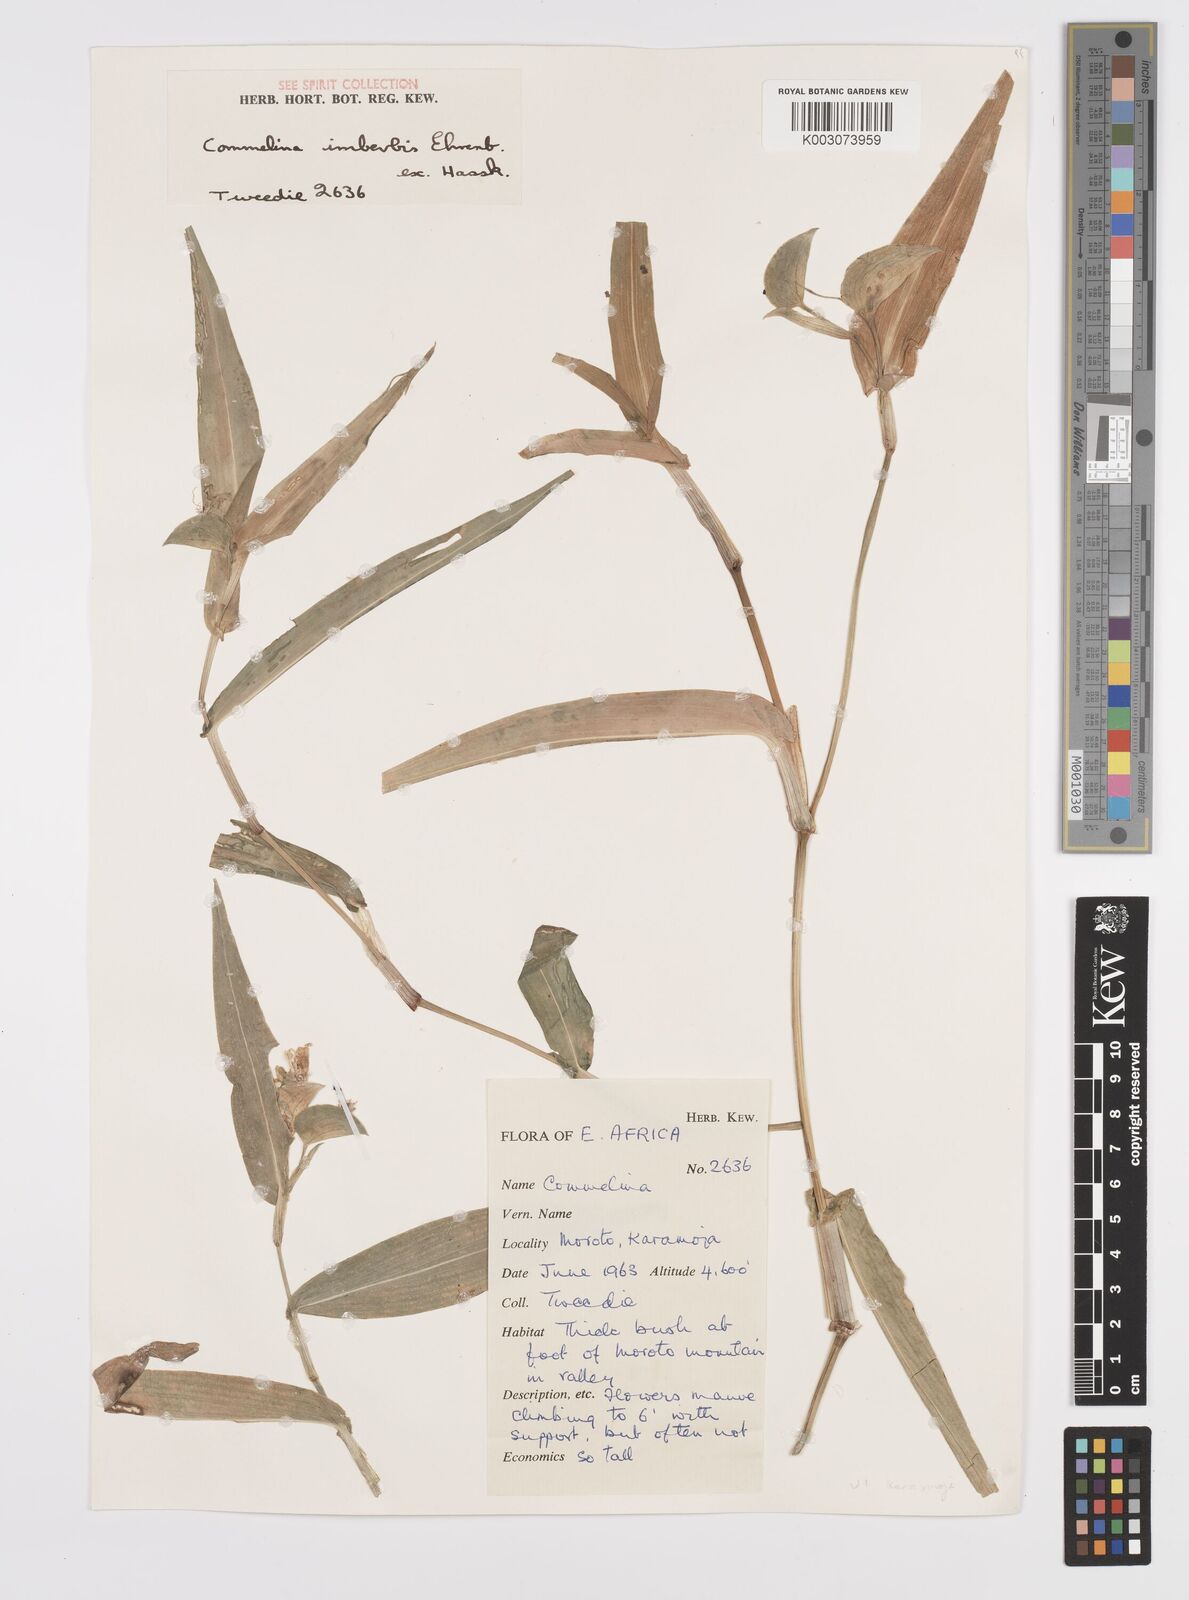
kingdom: Plantae
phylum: Tracheophyta
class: Liliopsida
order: Commelinales
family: Commelinaceae
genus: Commelina
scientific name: Commelina imberbis
